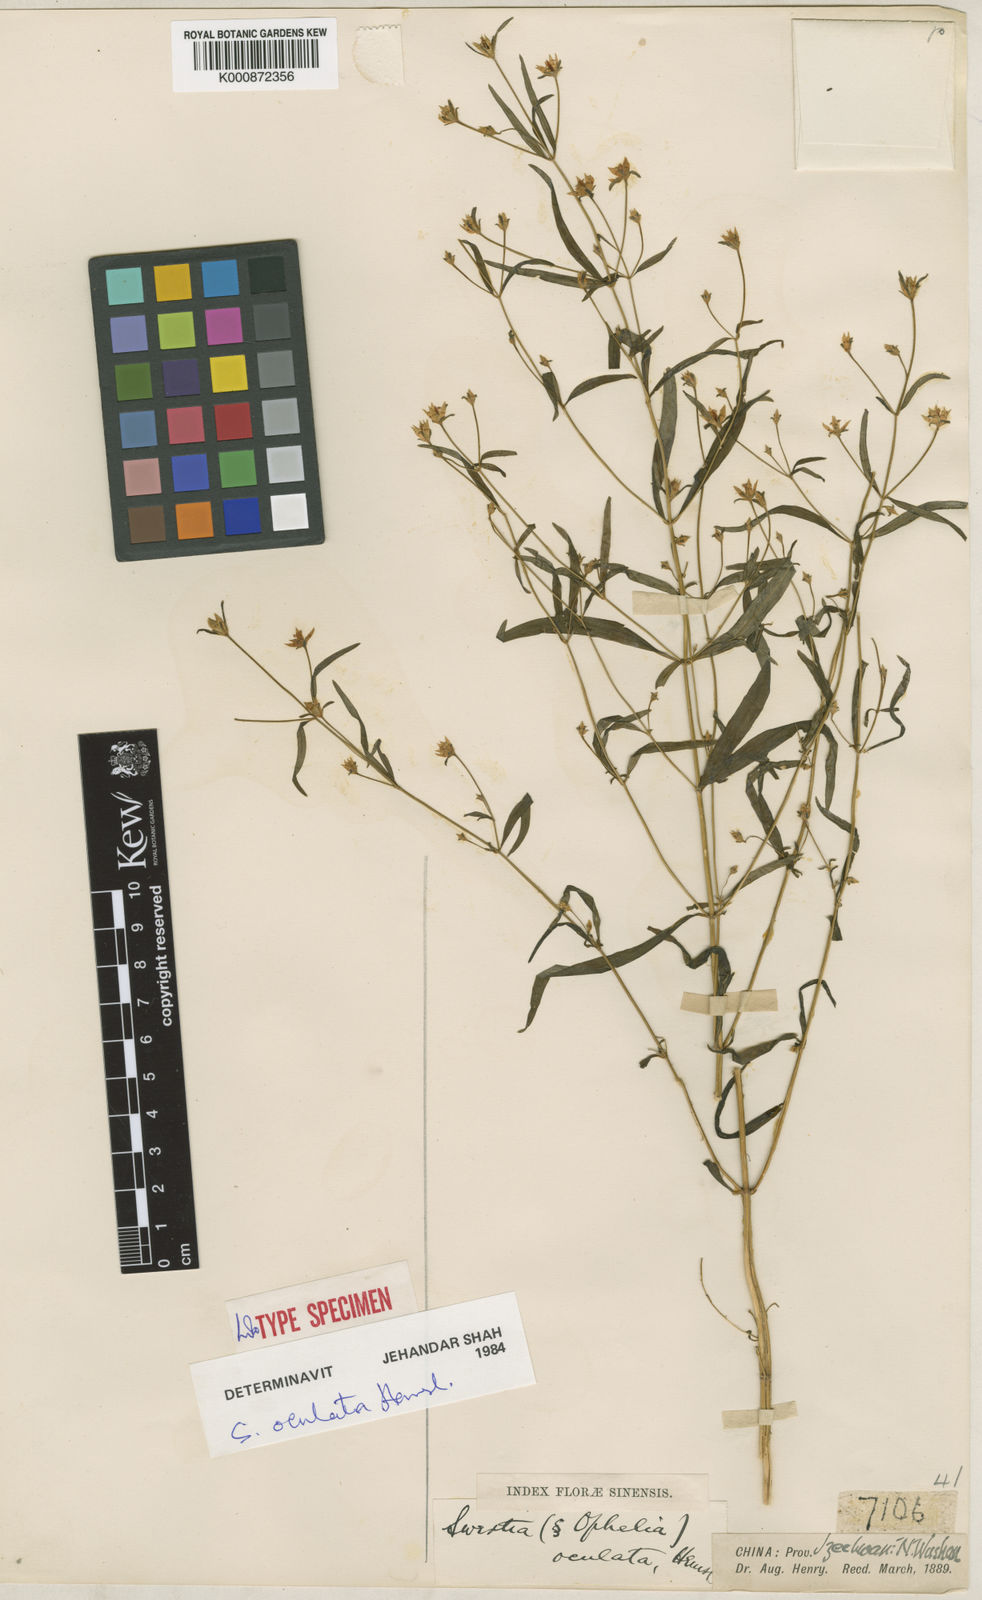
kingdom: Plantae
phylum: Tracheophyta
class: Magnoliopsida
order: Gentianales
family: Gentianaceae
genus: Swertia
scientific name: Swertia oculata
